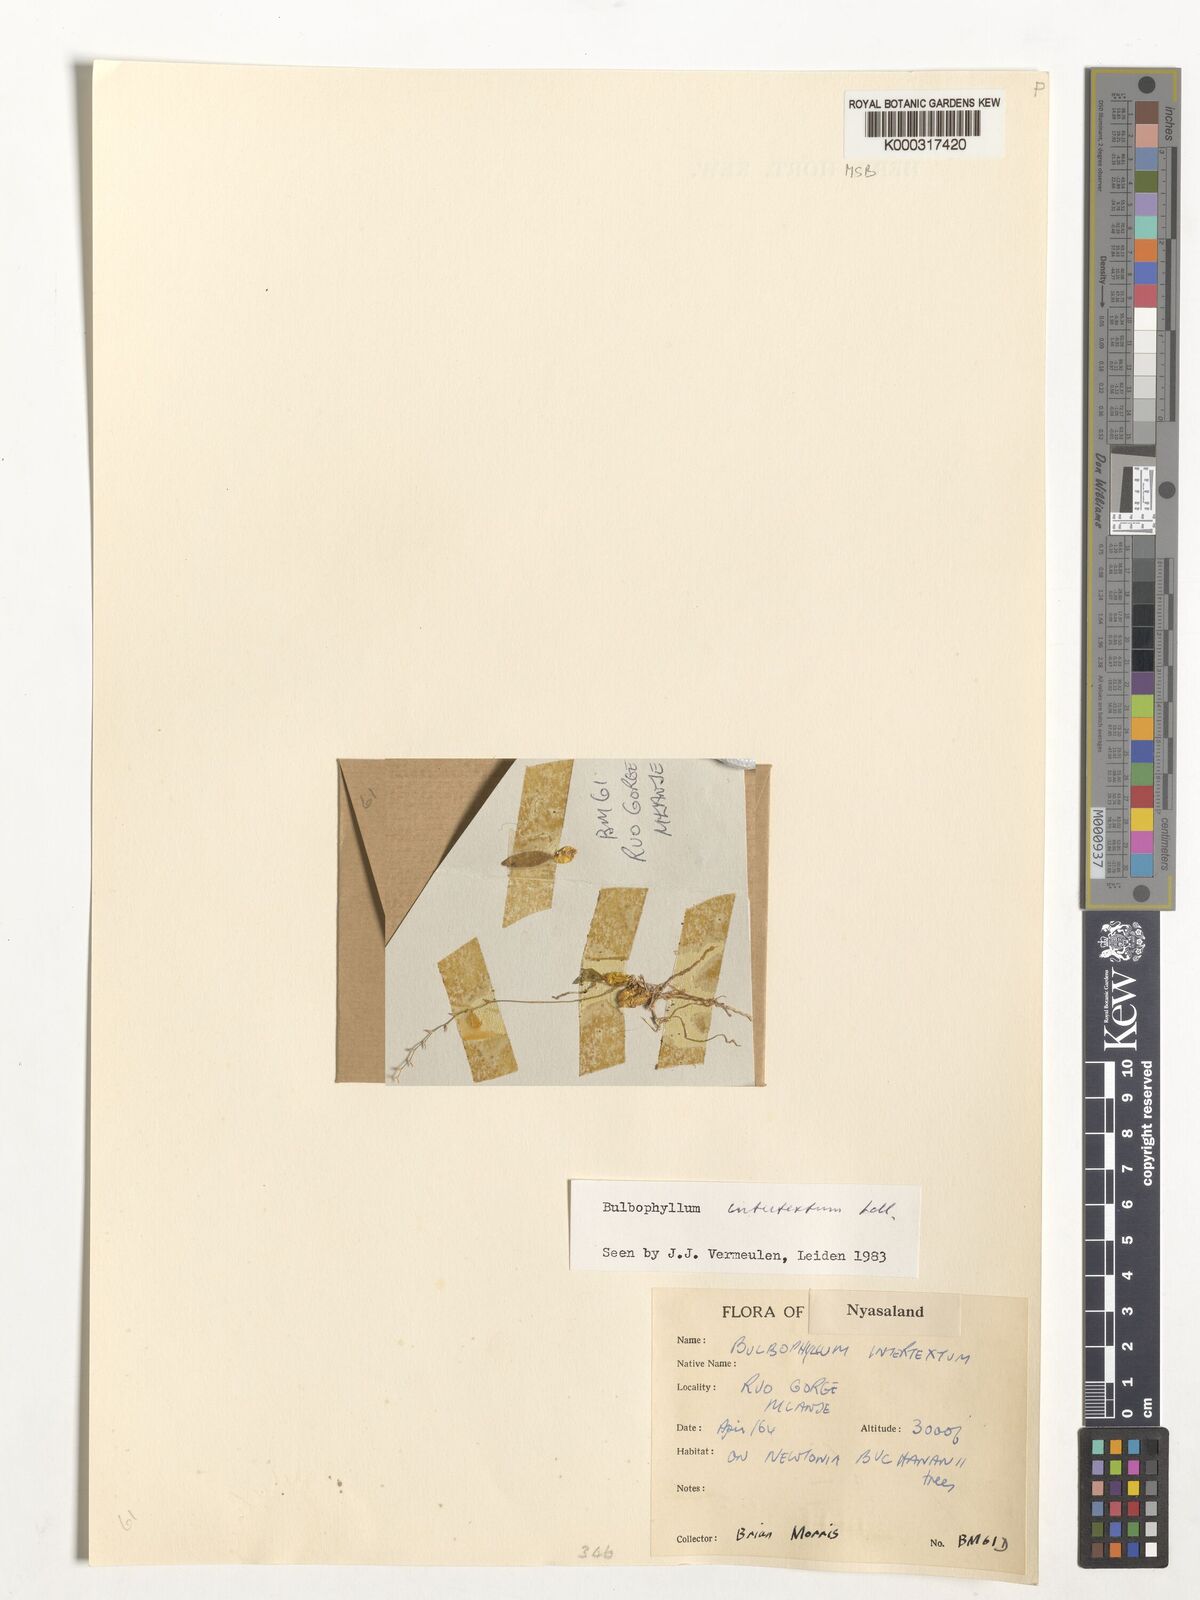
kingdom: Plantae
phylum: Tracheophyta
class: Liliopsida
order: Asparagales
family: Orchidaceae
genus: Bulbophyllum
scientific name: Bulbophyllum intertextum
